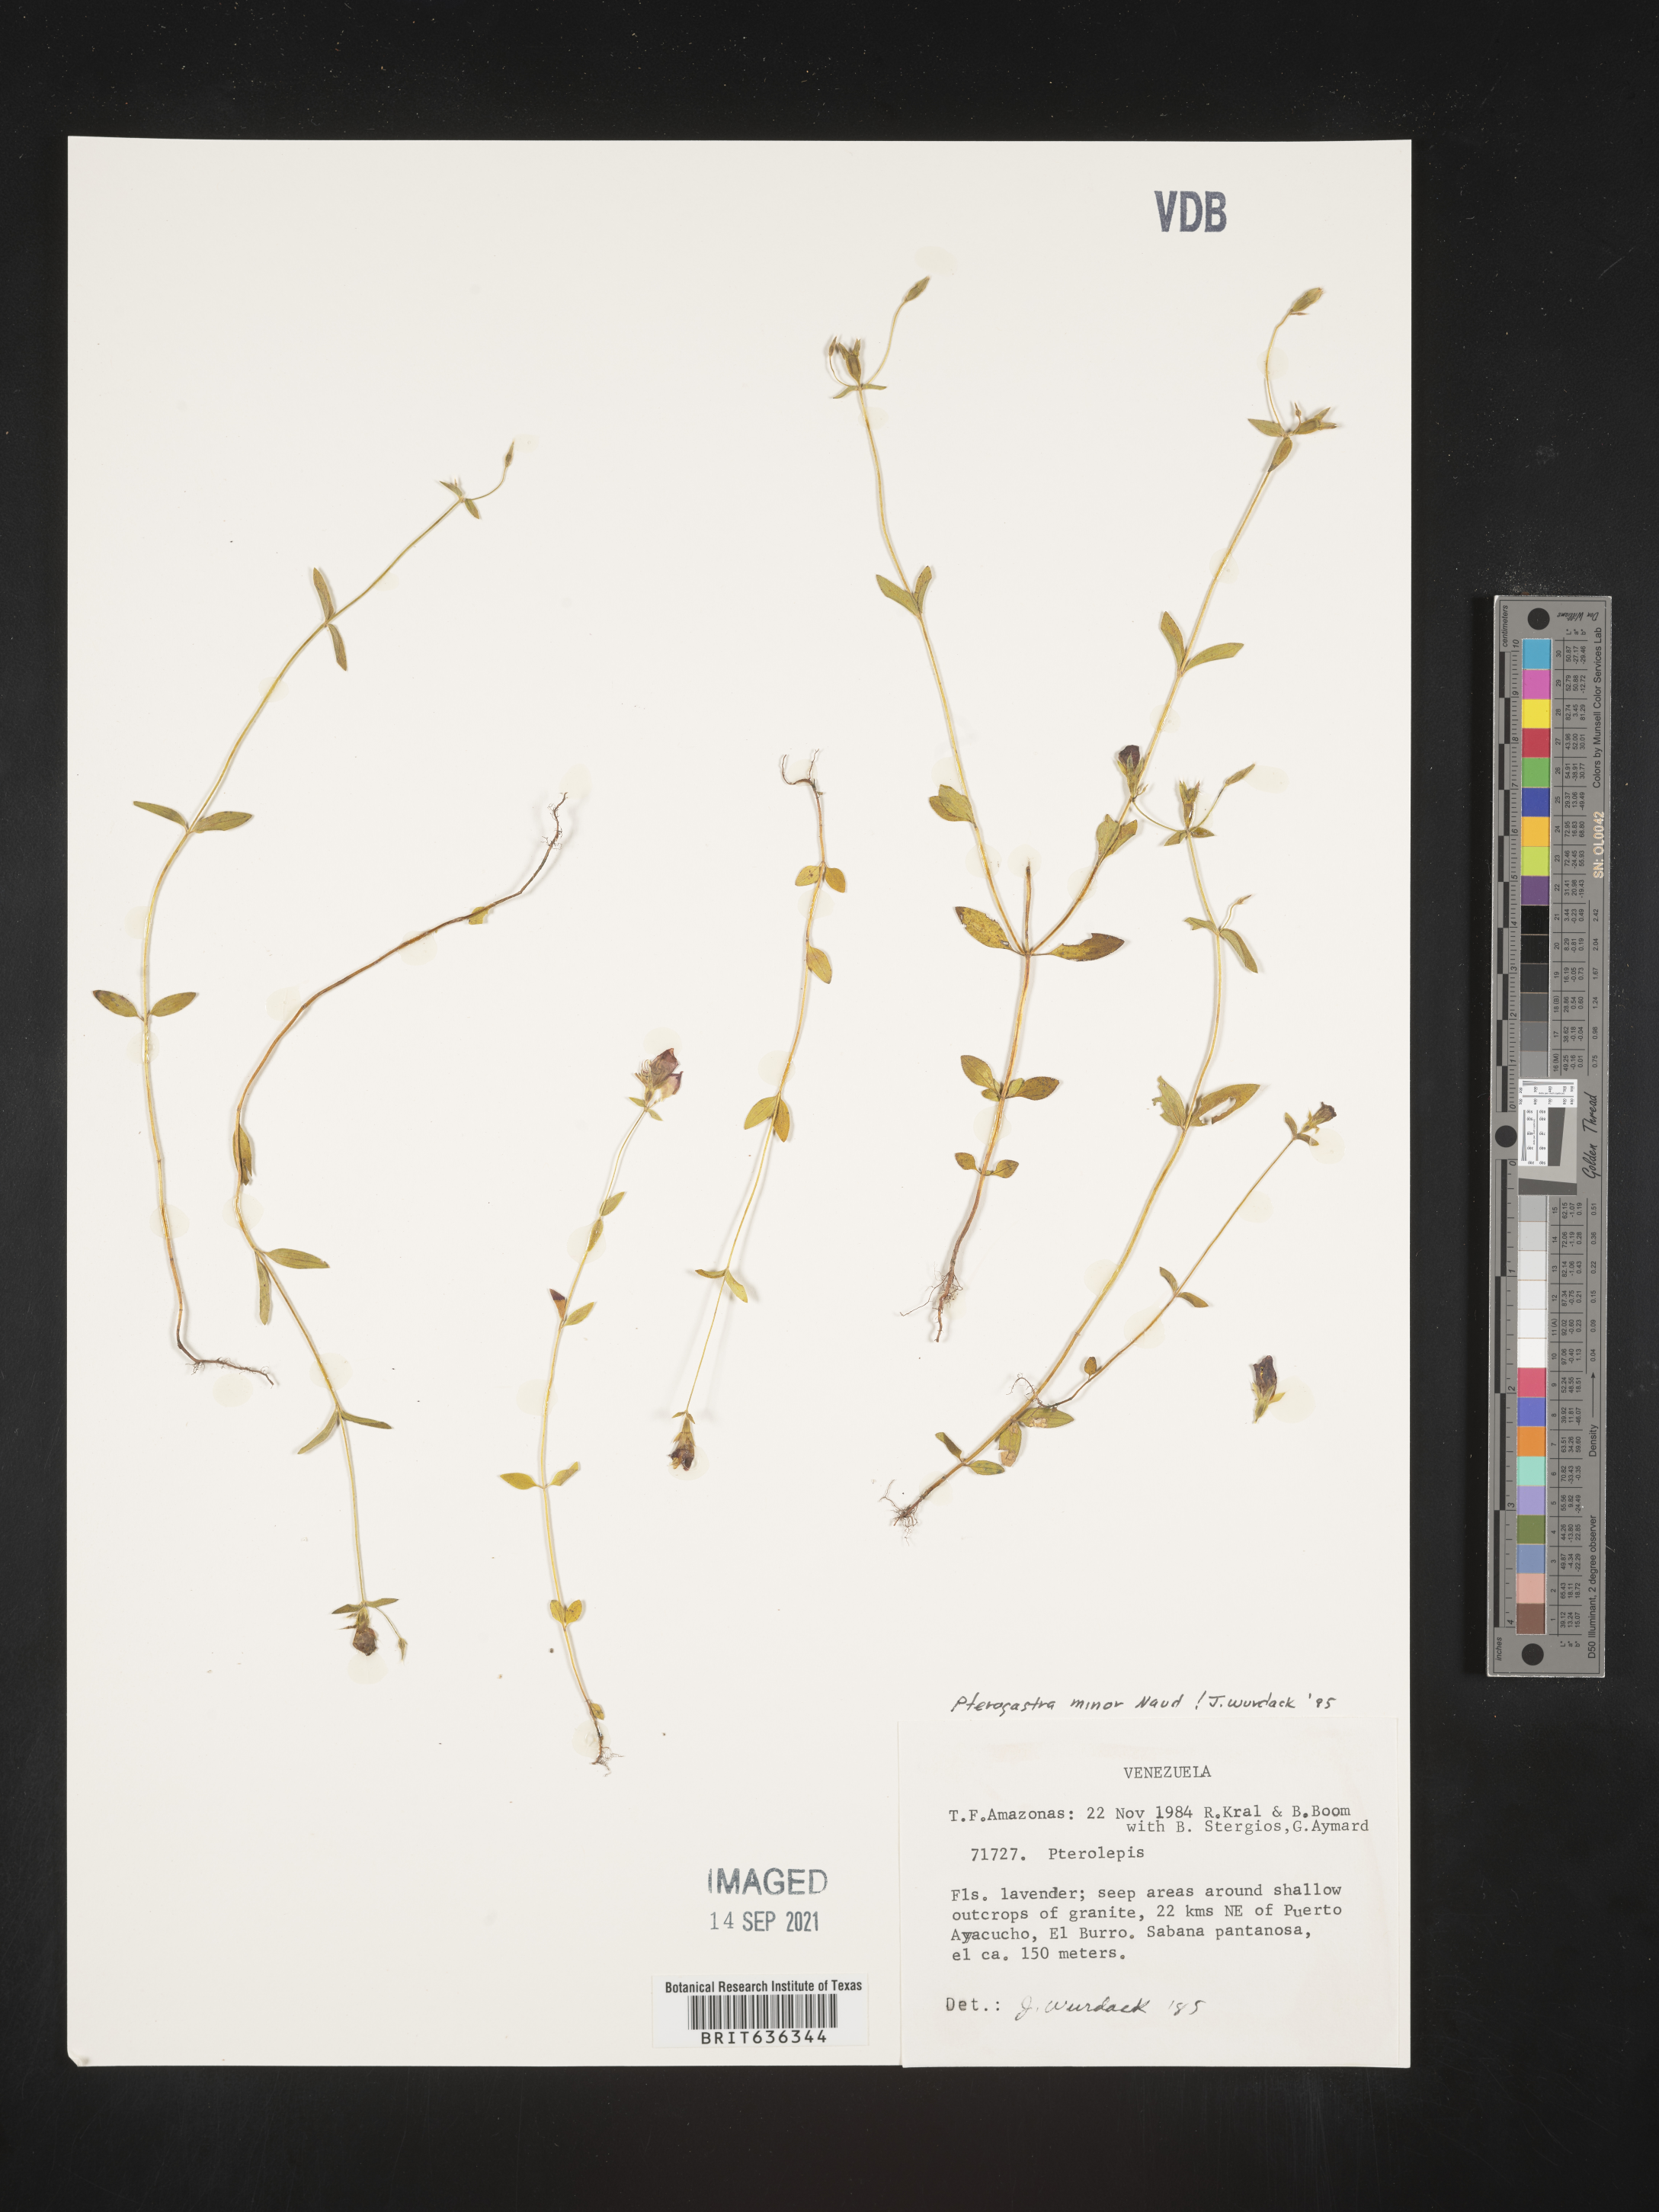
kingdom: Plantae
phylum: Tracheophyta
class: Magnoliopsida
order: Myrtales
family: Melastomataceae
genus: Pterogastra
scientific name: Pterogastra
